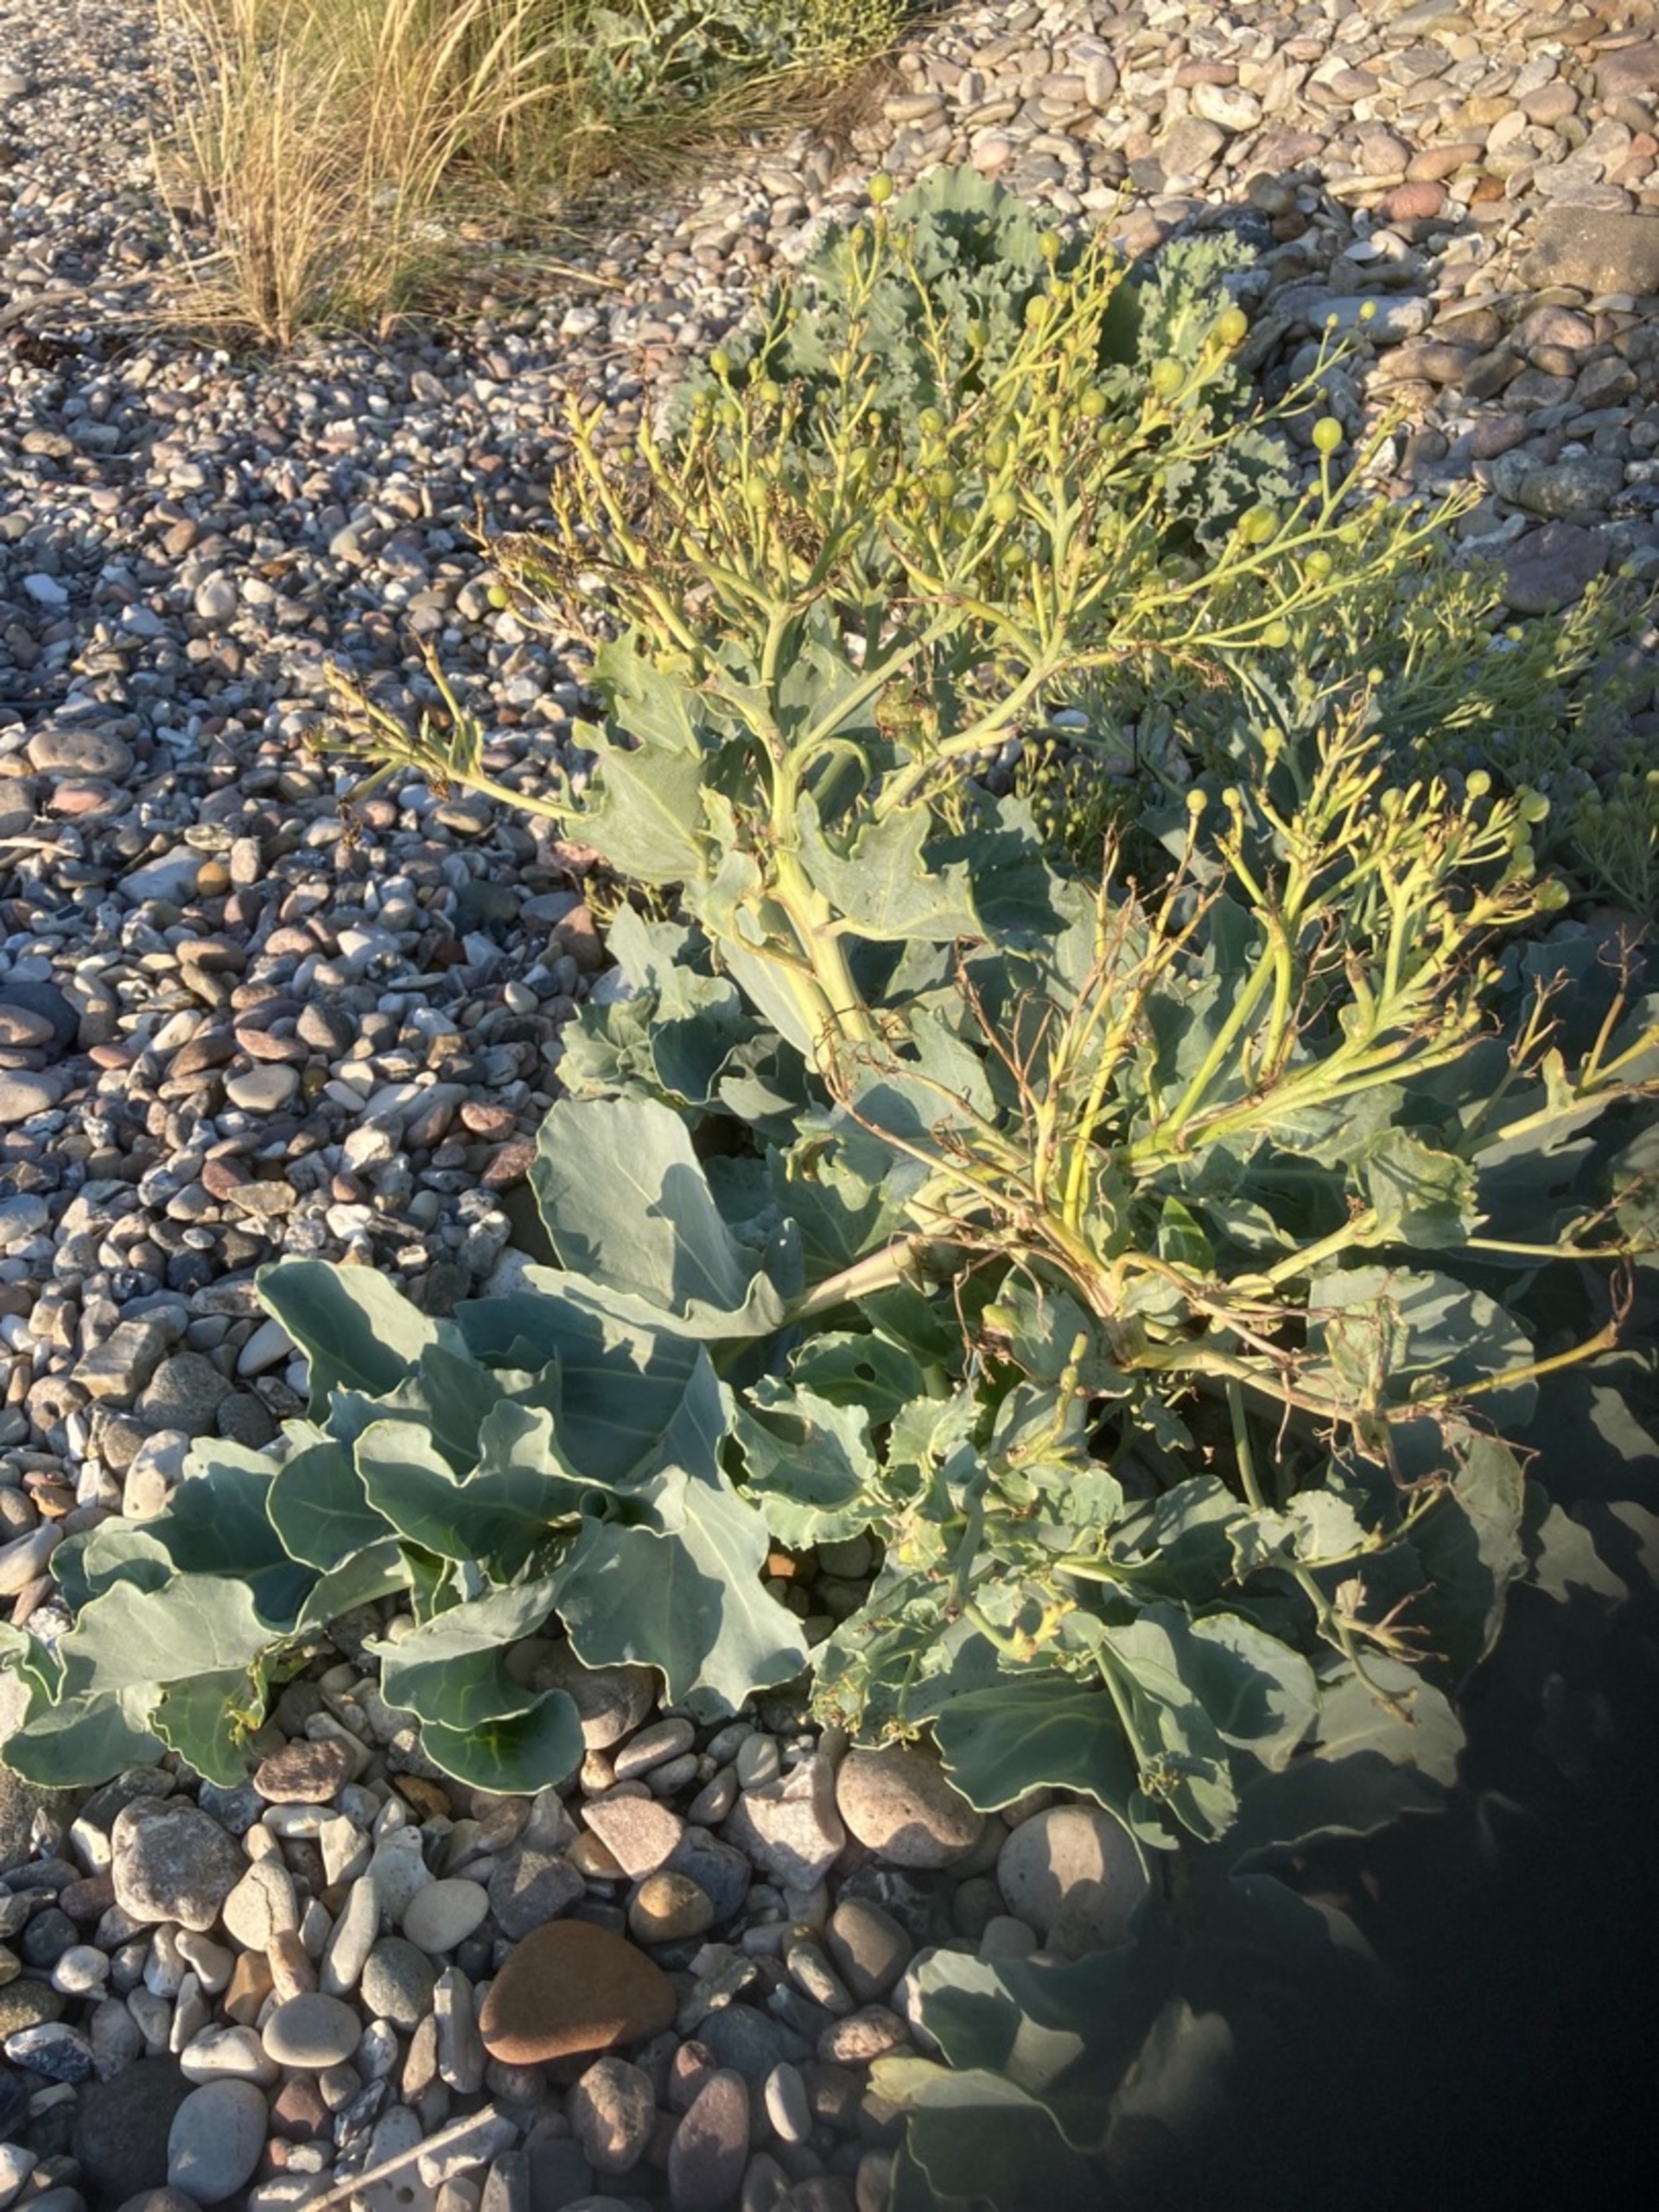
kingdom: Plantae
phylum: Tracheophyta
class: Magnoliopsida
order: Brassicales
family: Brassicaceae
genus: Crambe
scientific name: Crambe maritima
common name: Strandkål
